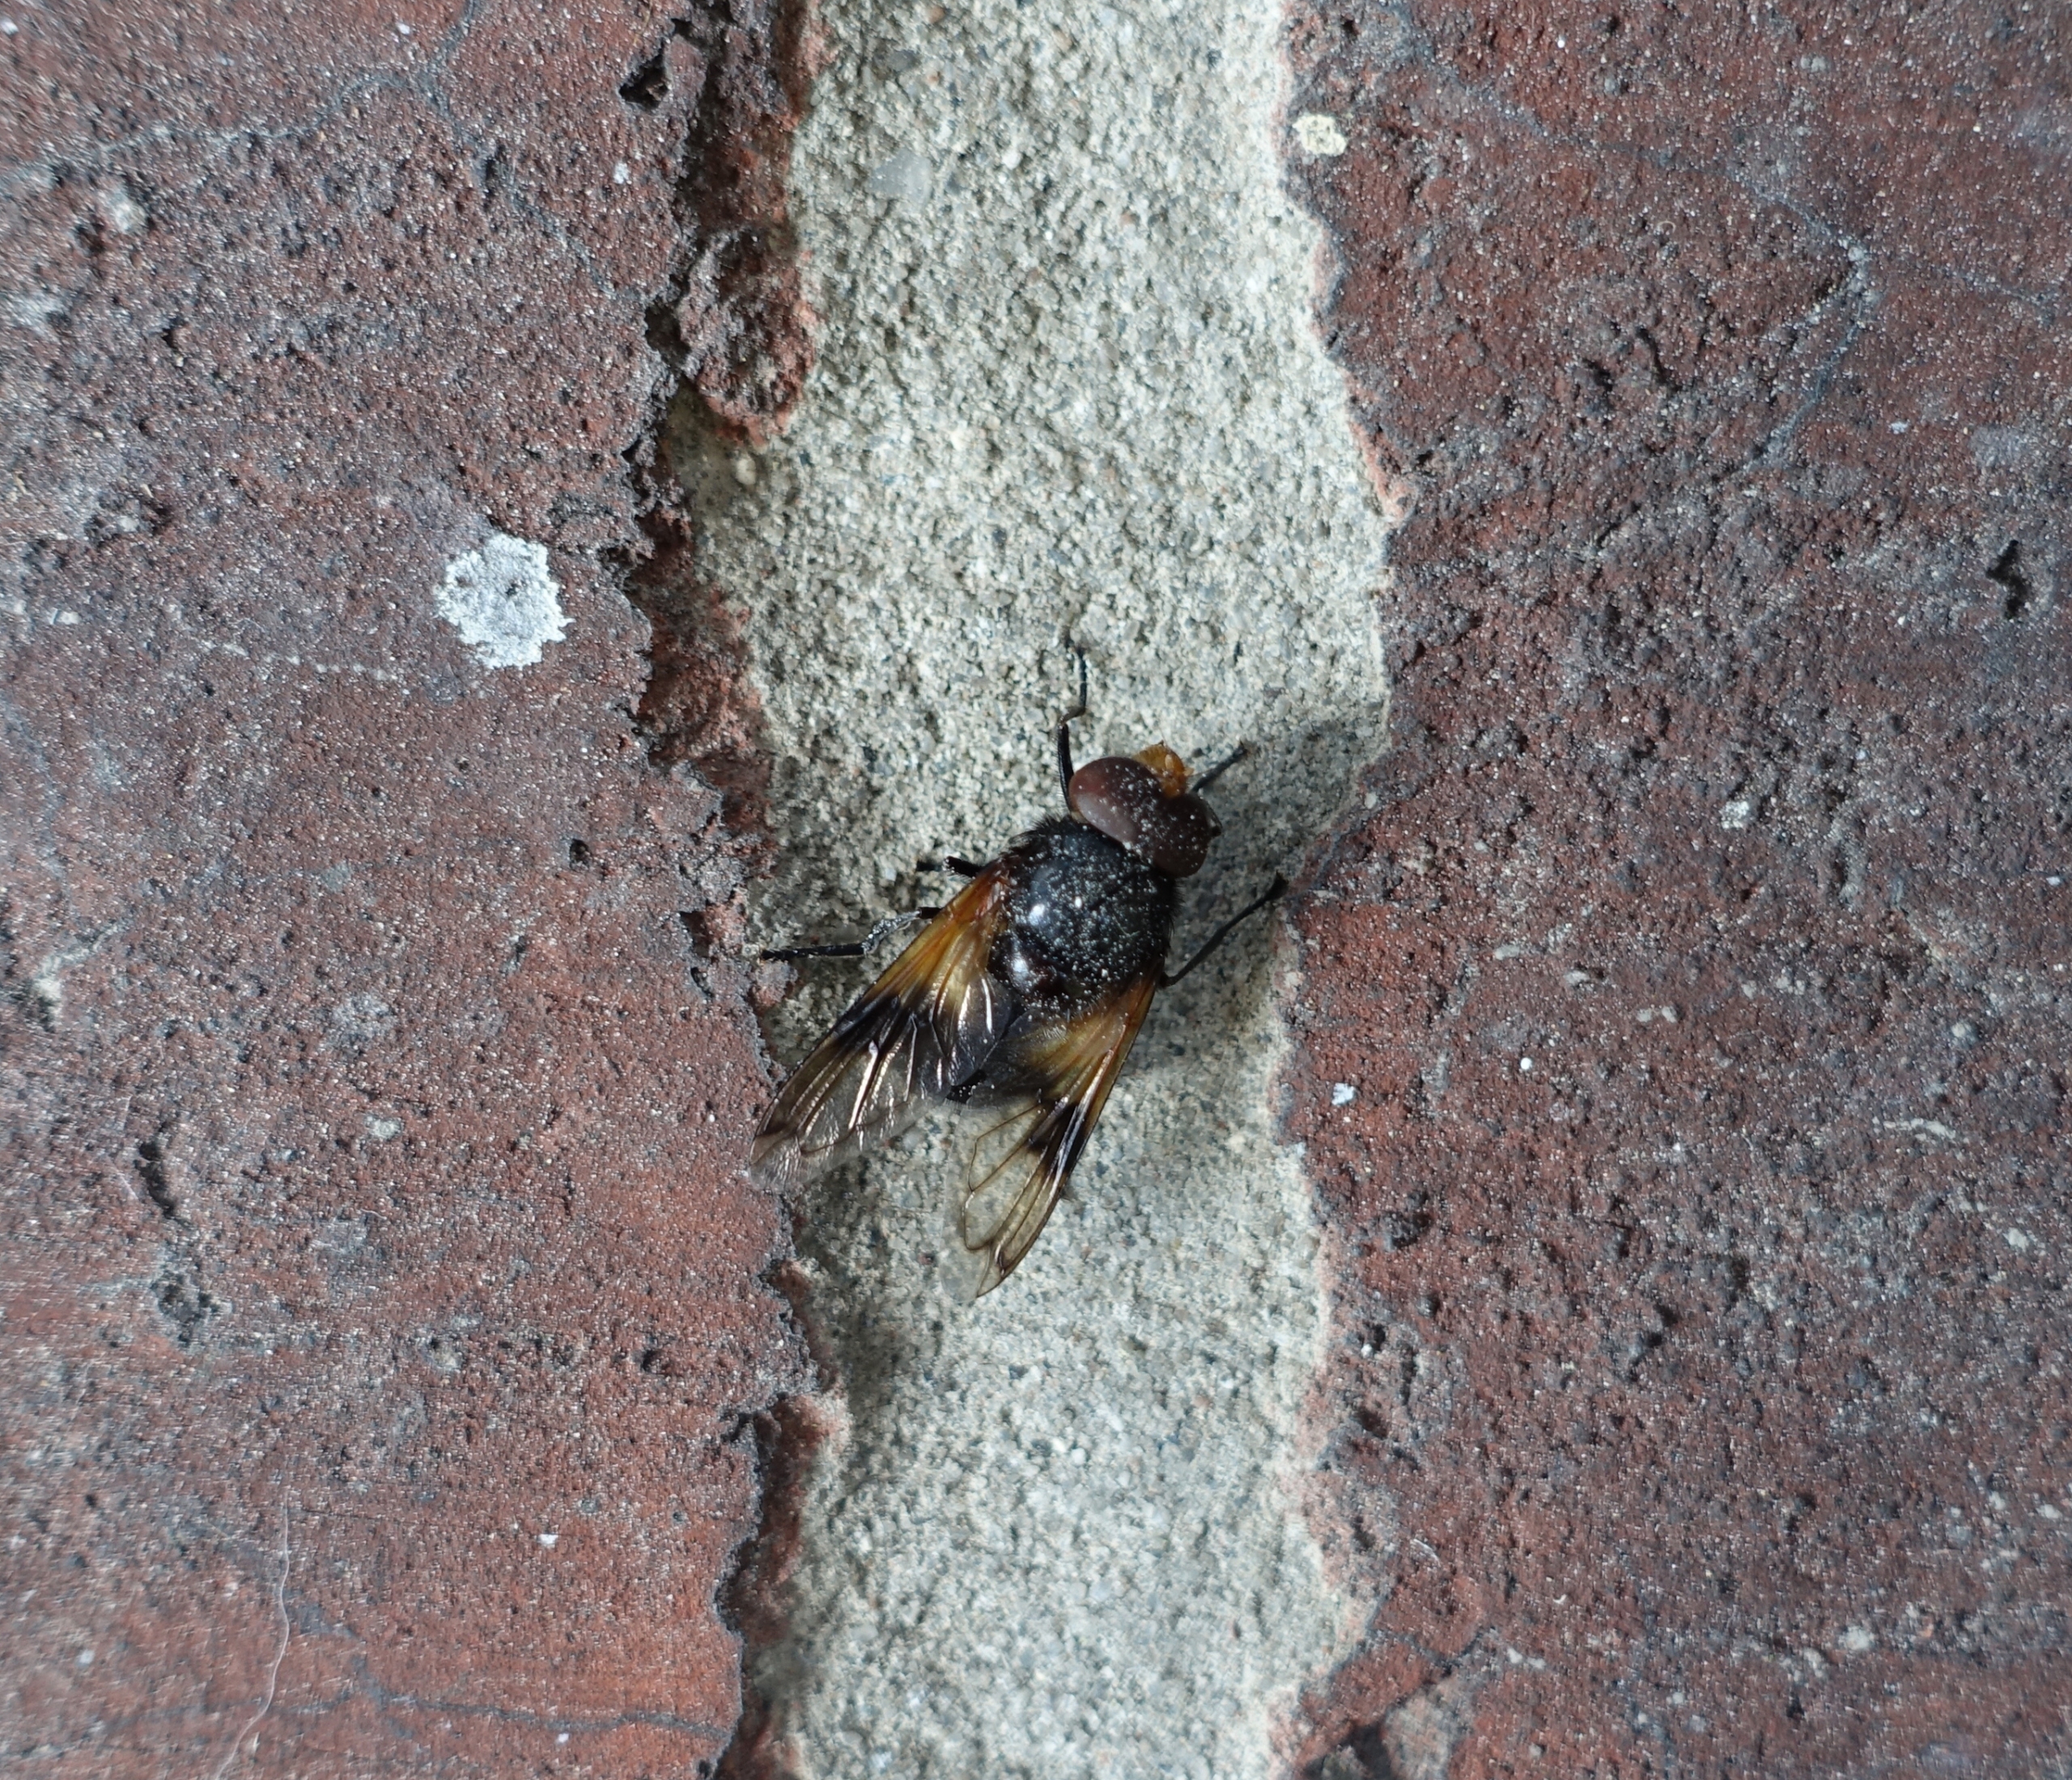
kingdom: Animalia
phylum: Arthropoda
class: Insecta
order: Diptera
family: Syrphidae
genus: Volucella
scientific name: Volucella pellucens
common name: Hvidbåndet humlesvirreflue
